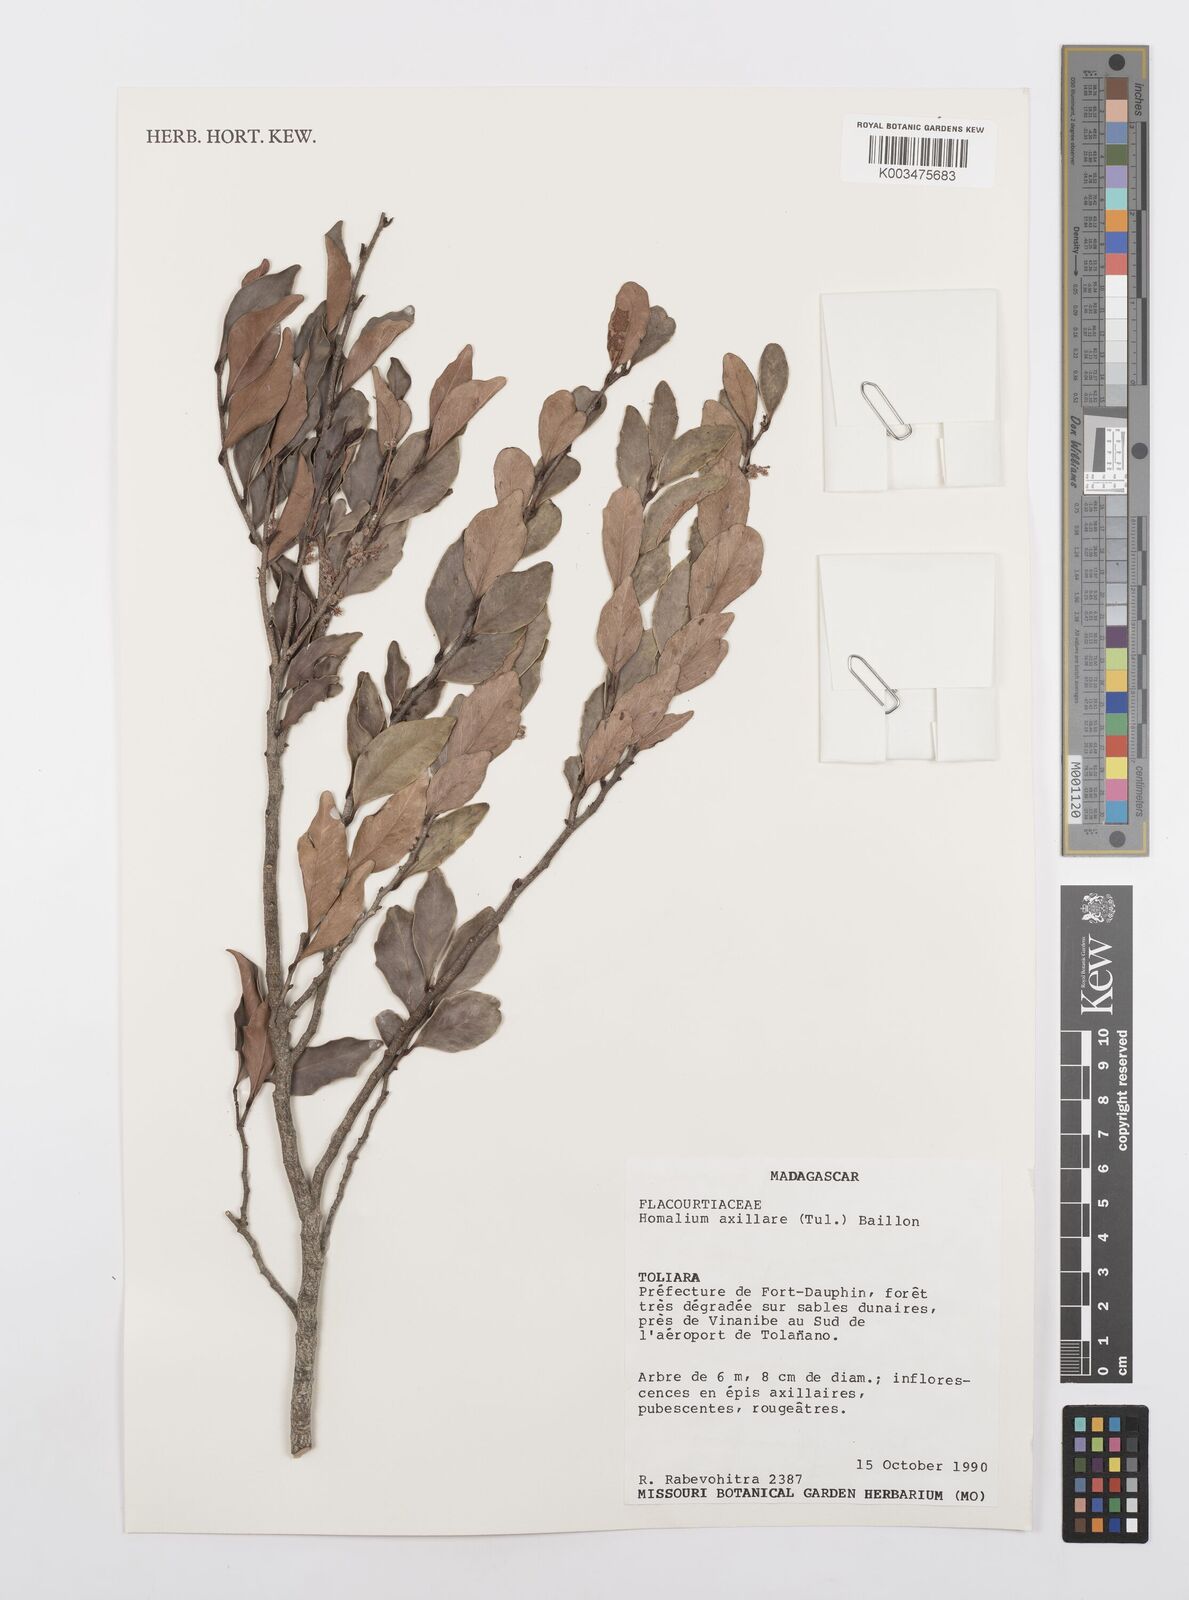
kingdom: Plantae
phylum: Tracheophyta
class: Magnoliopsida
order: Malpighiales
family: Salicaceae
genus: Homalium
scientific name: Homalium axillare
